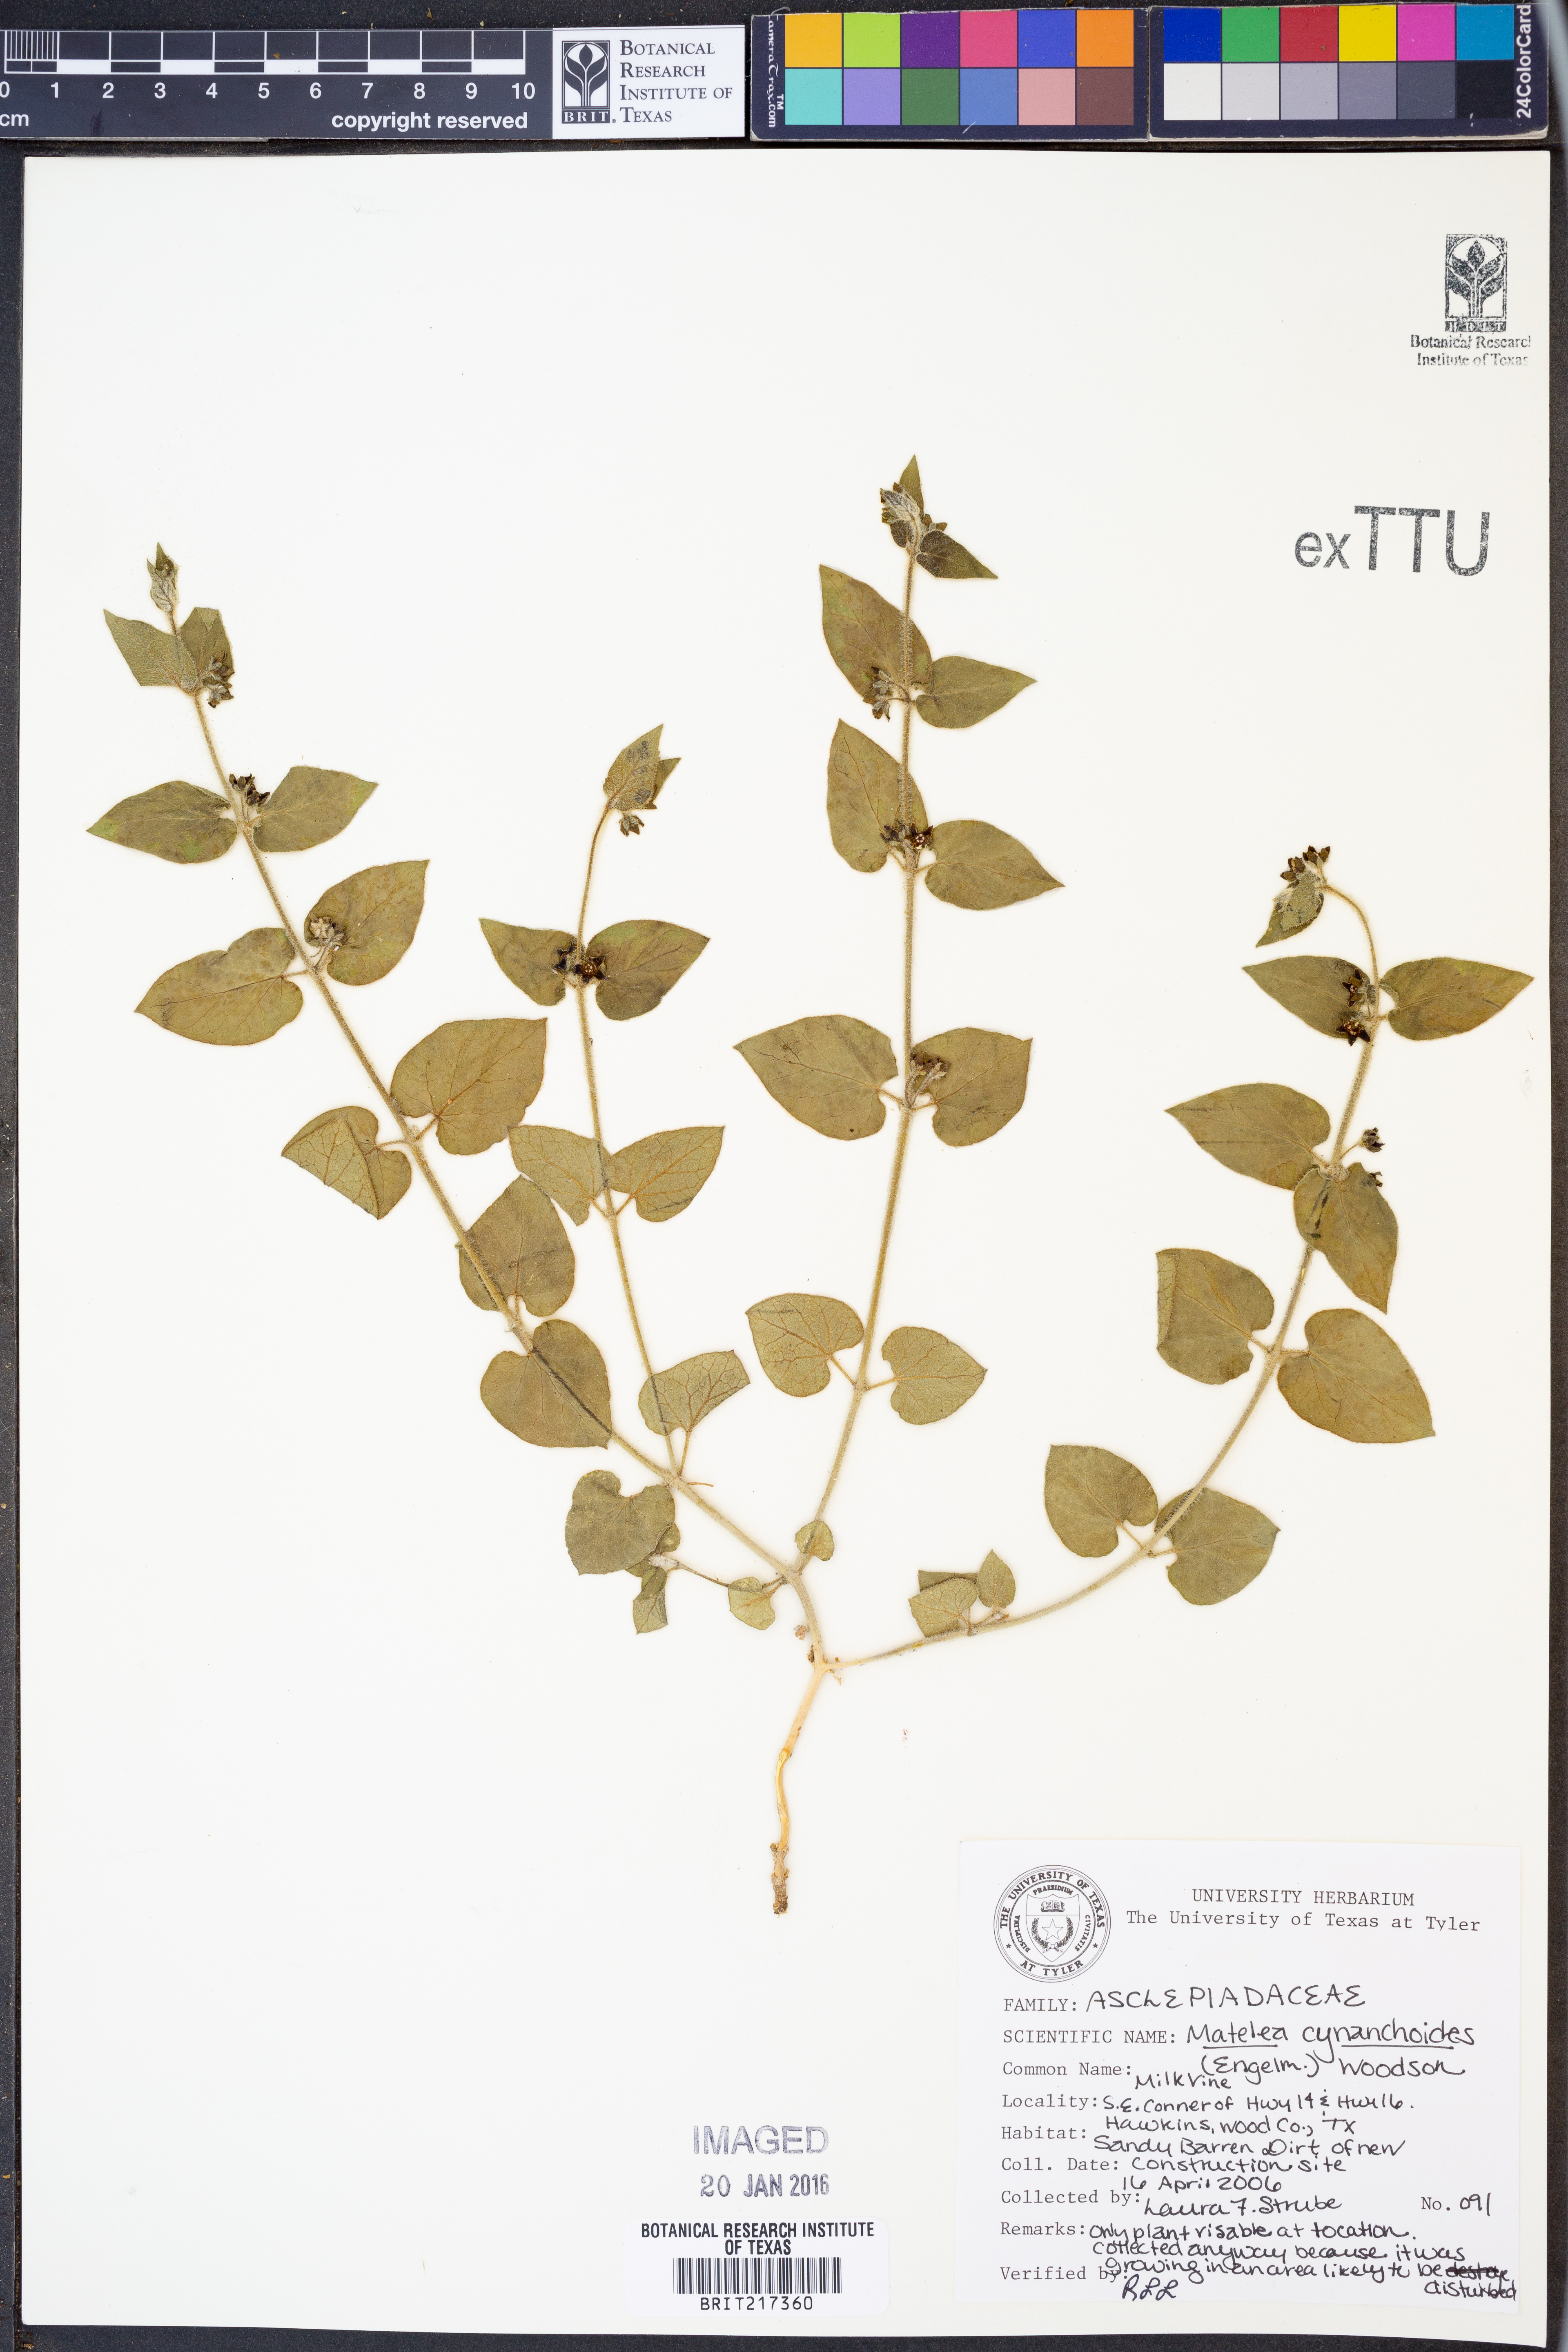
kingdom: Plantae
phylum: Tracheophyta
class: Magnoliopsida
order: Gentianales
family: Apocynaceae
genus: Matelea
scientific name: Matelea cynanchoides
